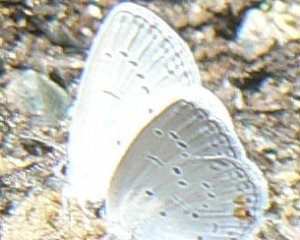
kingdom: Animalia
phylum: Arthropoda
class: Insecta
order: Lepidoptera
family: Lycaenidae
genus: Elkalyce
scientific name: Elkalyce comyntas
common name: Eastern Tailed-Blue
